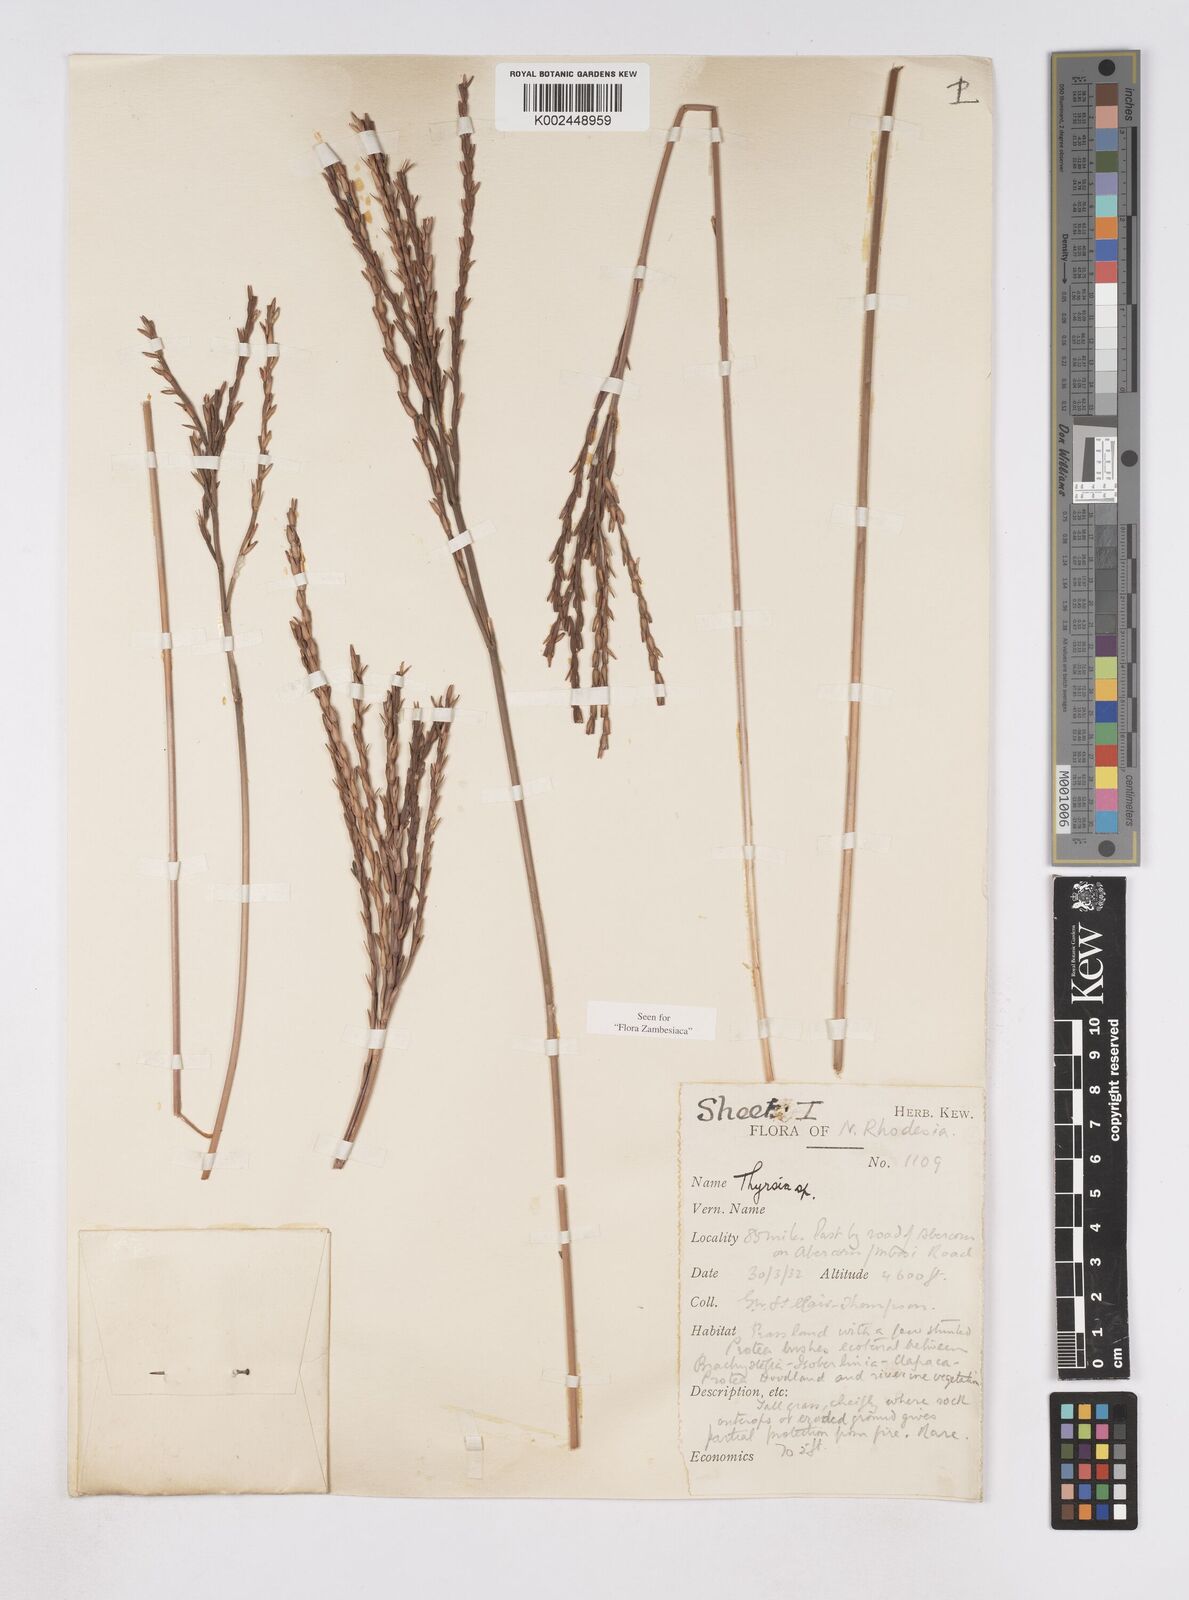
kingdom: Plantae
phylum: Tracheophyta
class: Liliopsida
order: Poales
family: Poaceae
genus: Thyrsia
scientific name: Thyrsia huillensis
